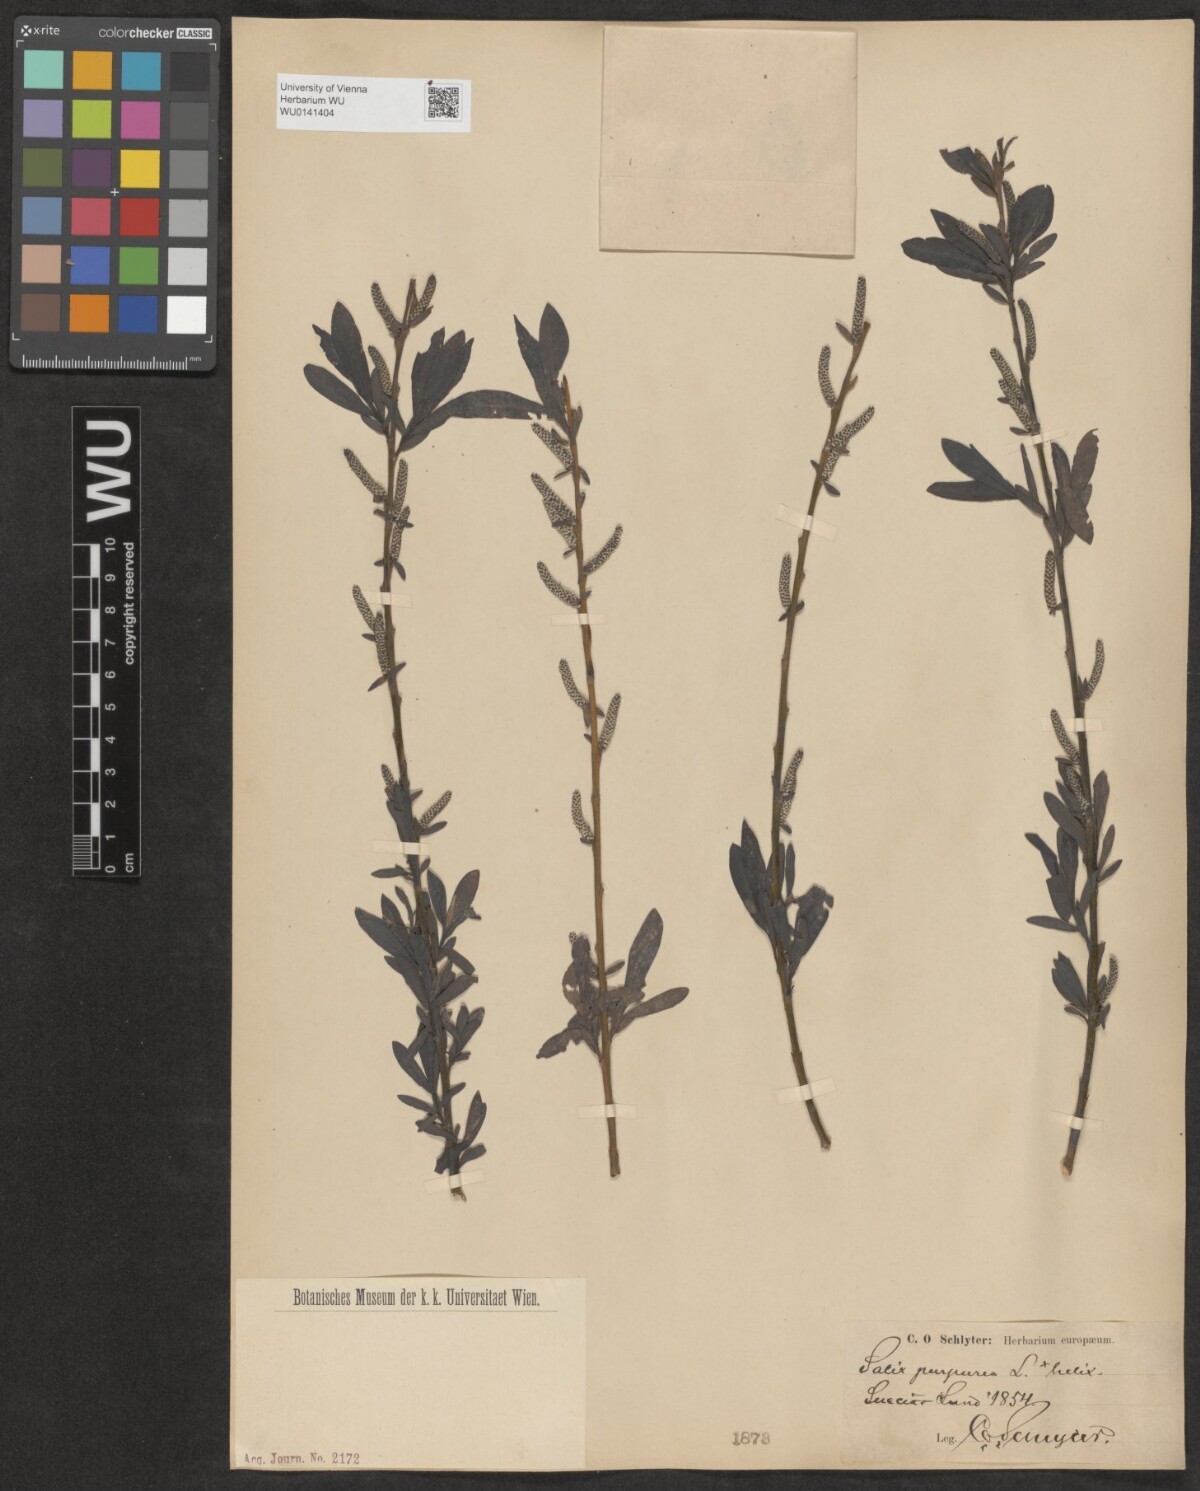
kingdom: Plantae
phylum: Tracheophyta
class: Magnoliopsida
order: Malpighiales
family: Salicaceae
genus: Salix
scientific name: Salix purpurea
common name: Purple willow
